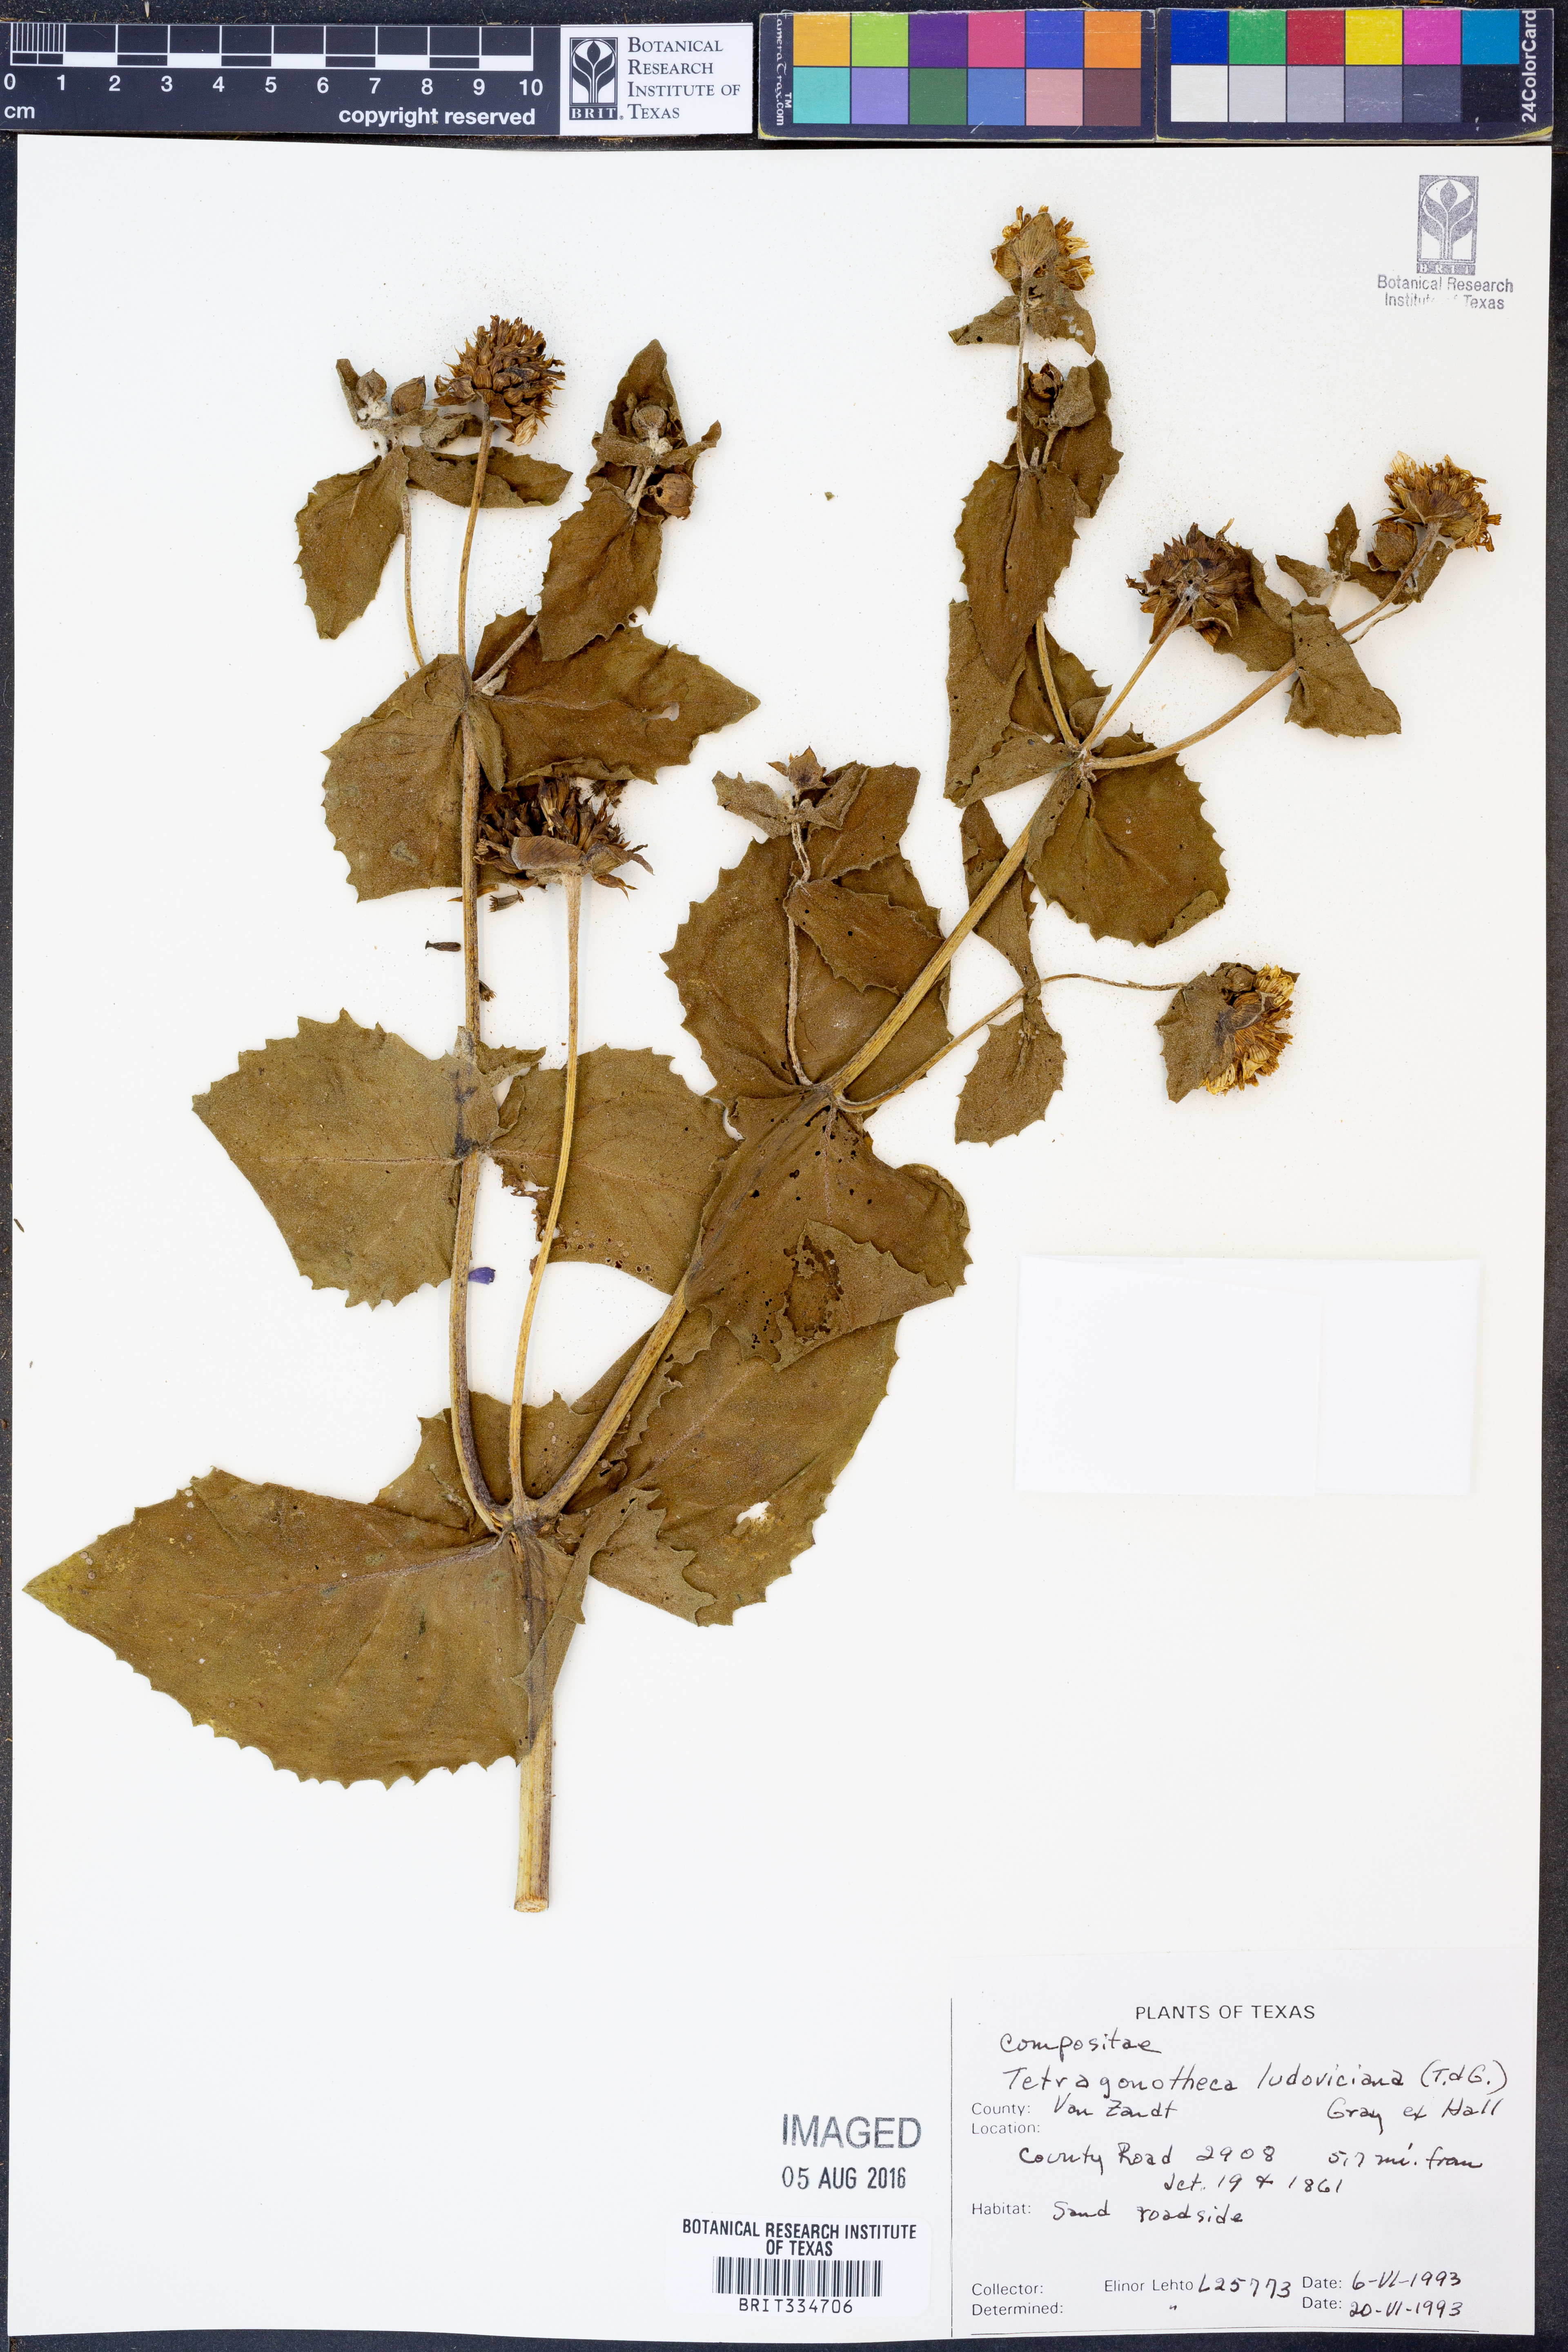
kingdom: Plantae
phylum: Tracheophyta
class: Magnoliopsida
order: Asterales
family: Asteraceae
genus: Tetragonotheca
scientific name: Tetragonotheca ludoviciana
